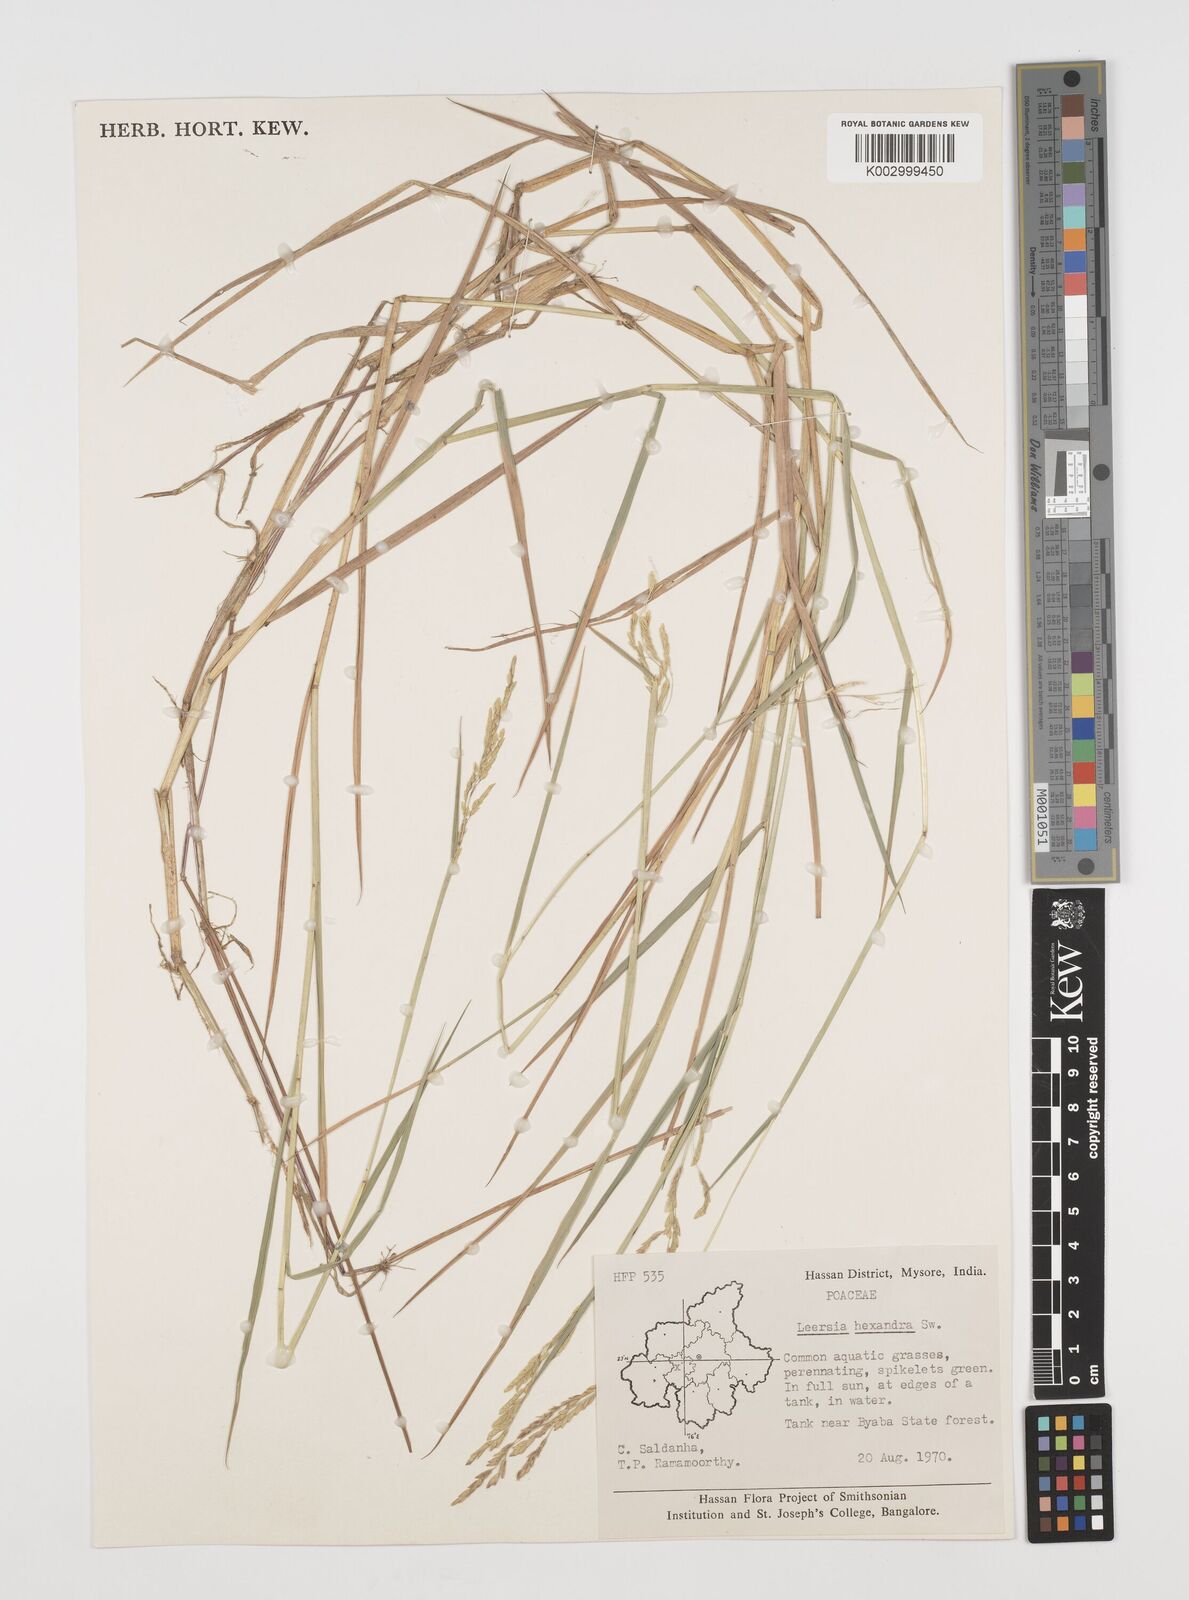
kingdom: Plantae
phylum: Tracheophyta
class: Liliopsida
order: Poales
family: Poaceae
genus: Leersia
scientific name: Leersia hexandra
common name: Southern cut grass
